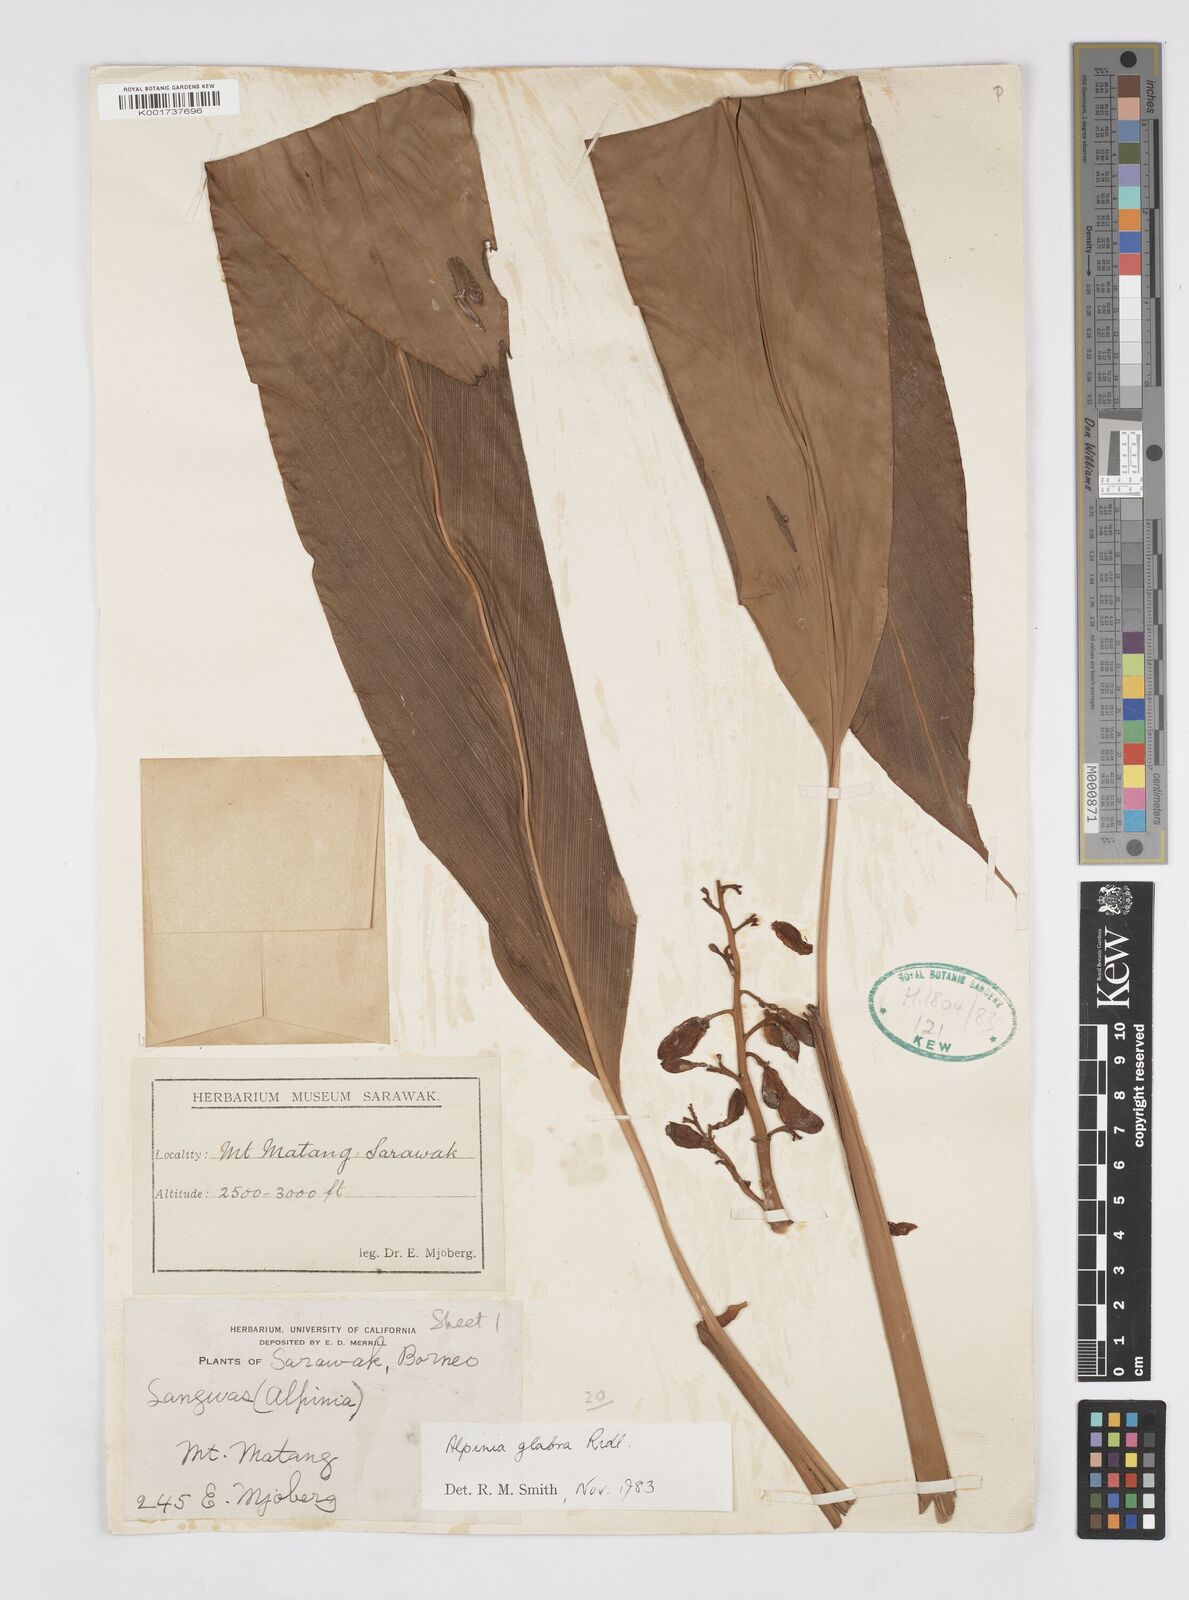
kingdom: Plantae
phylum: Tracheophyta
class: Liliopsida
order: Zingiberales
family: Zingiberaceae
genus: Alpinia
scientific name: Alpinia glabra
